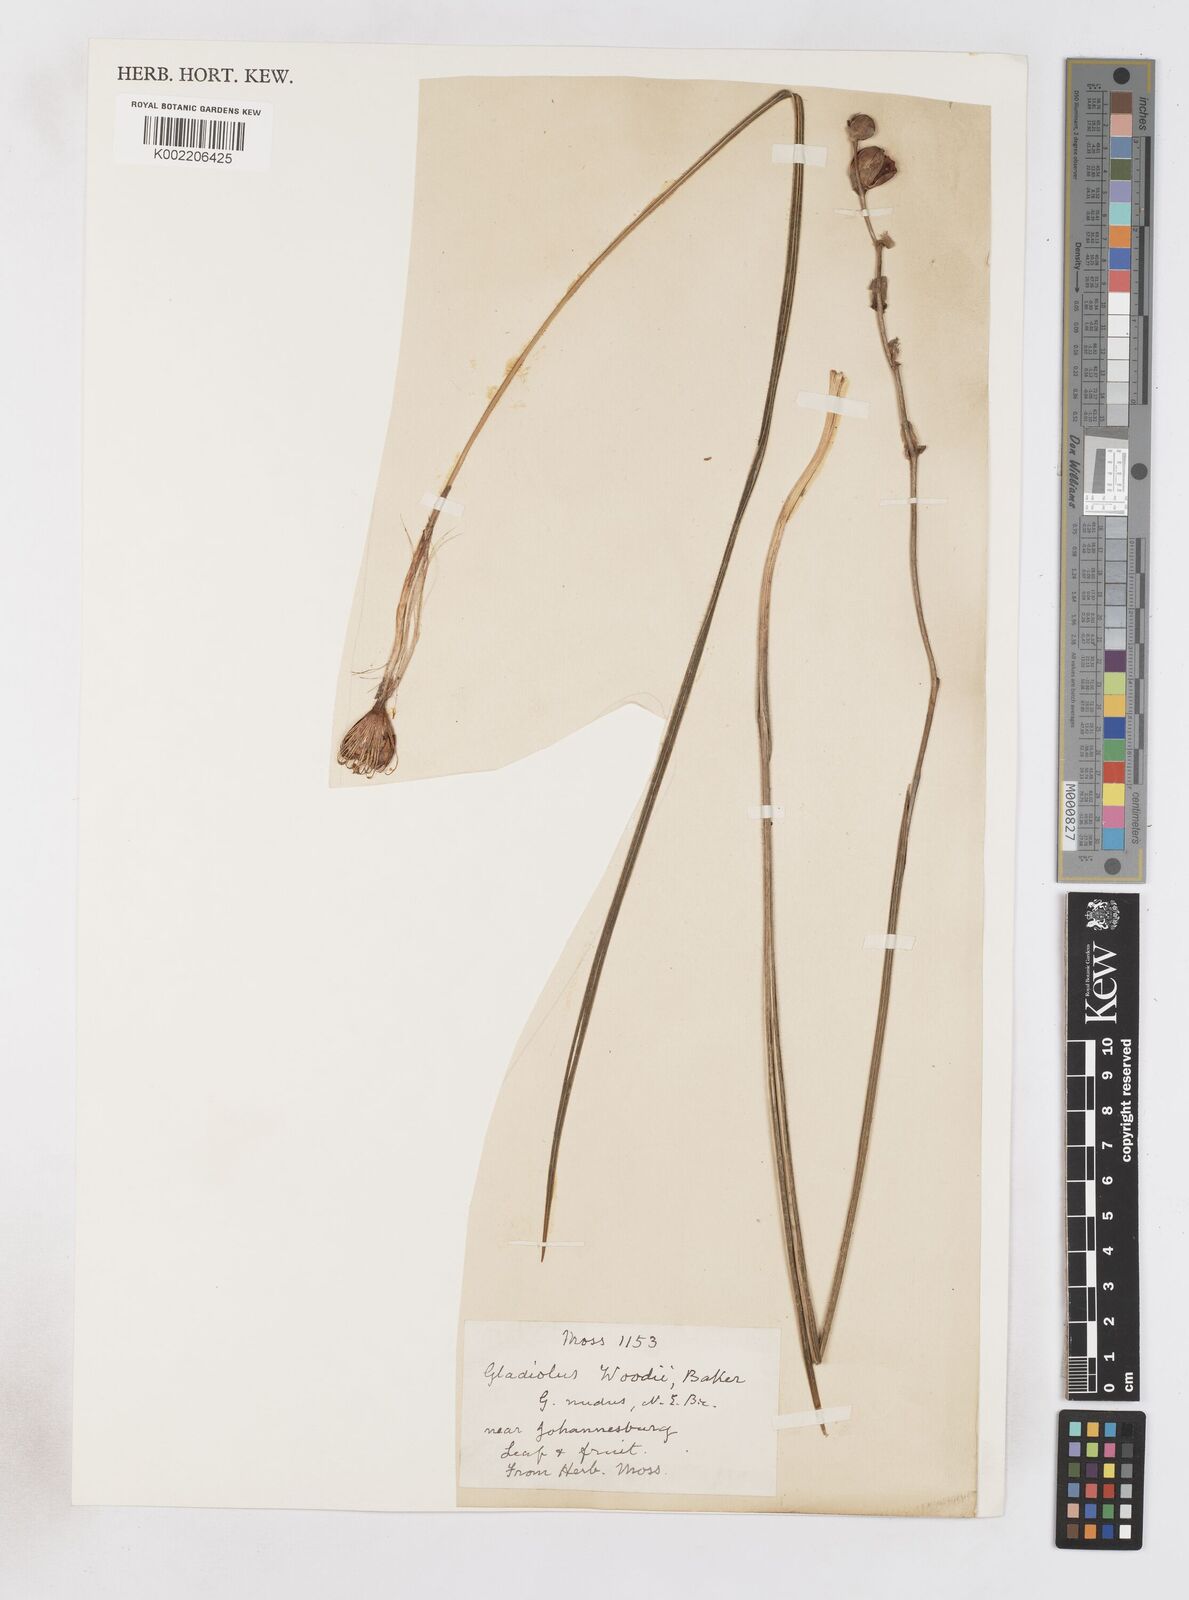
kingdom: Plantae
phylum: Tracheophyta
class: Liliopsida
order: Asparagales
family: Iridaceae
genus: Gladiolus
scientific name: Gladiolus woodii
